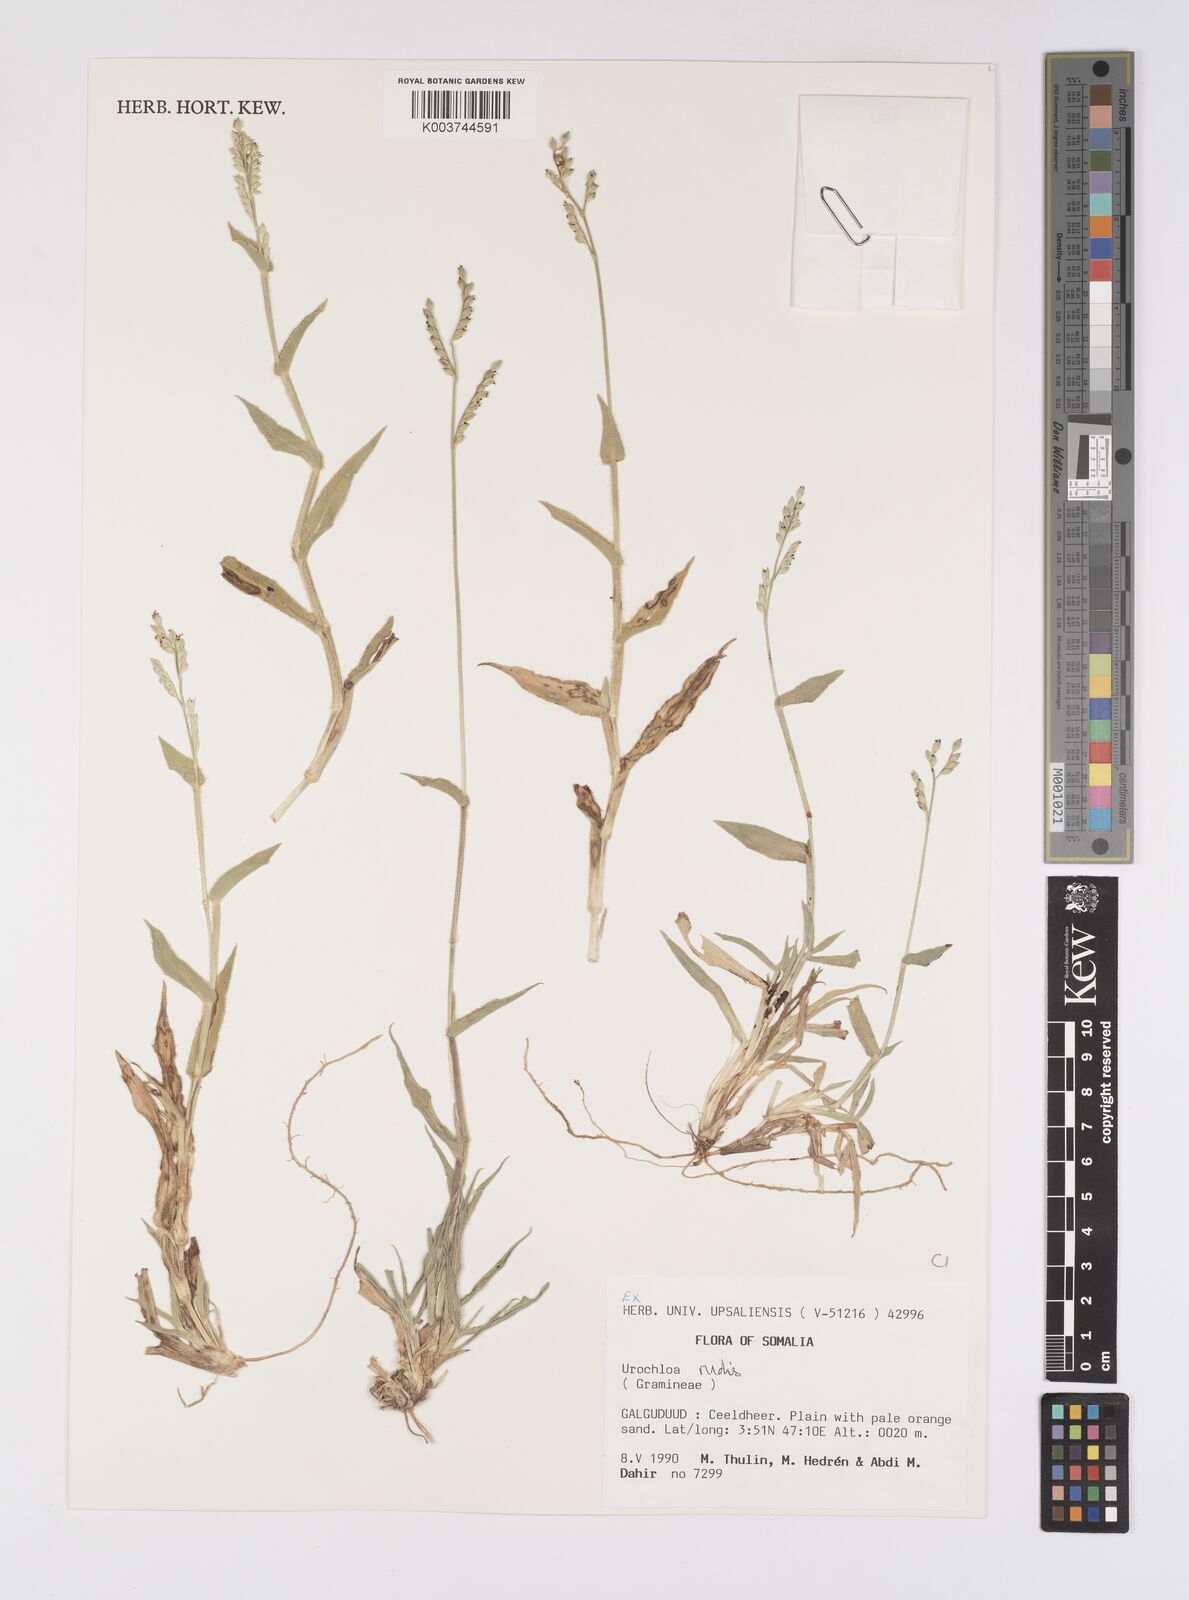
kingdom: Plantae
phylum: Tracheophyta
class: Liliopsida
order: Poales
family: Poaceae
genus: Urochloa
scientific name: Urochloa rudis
